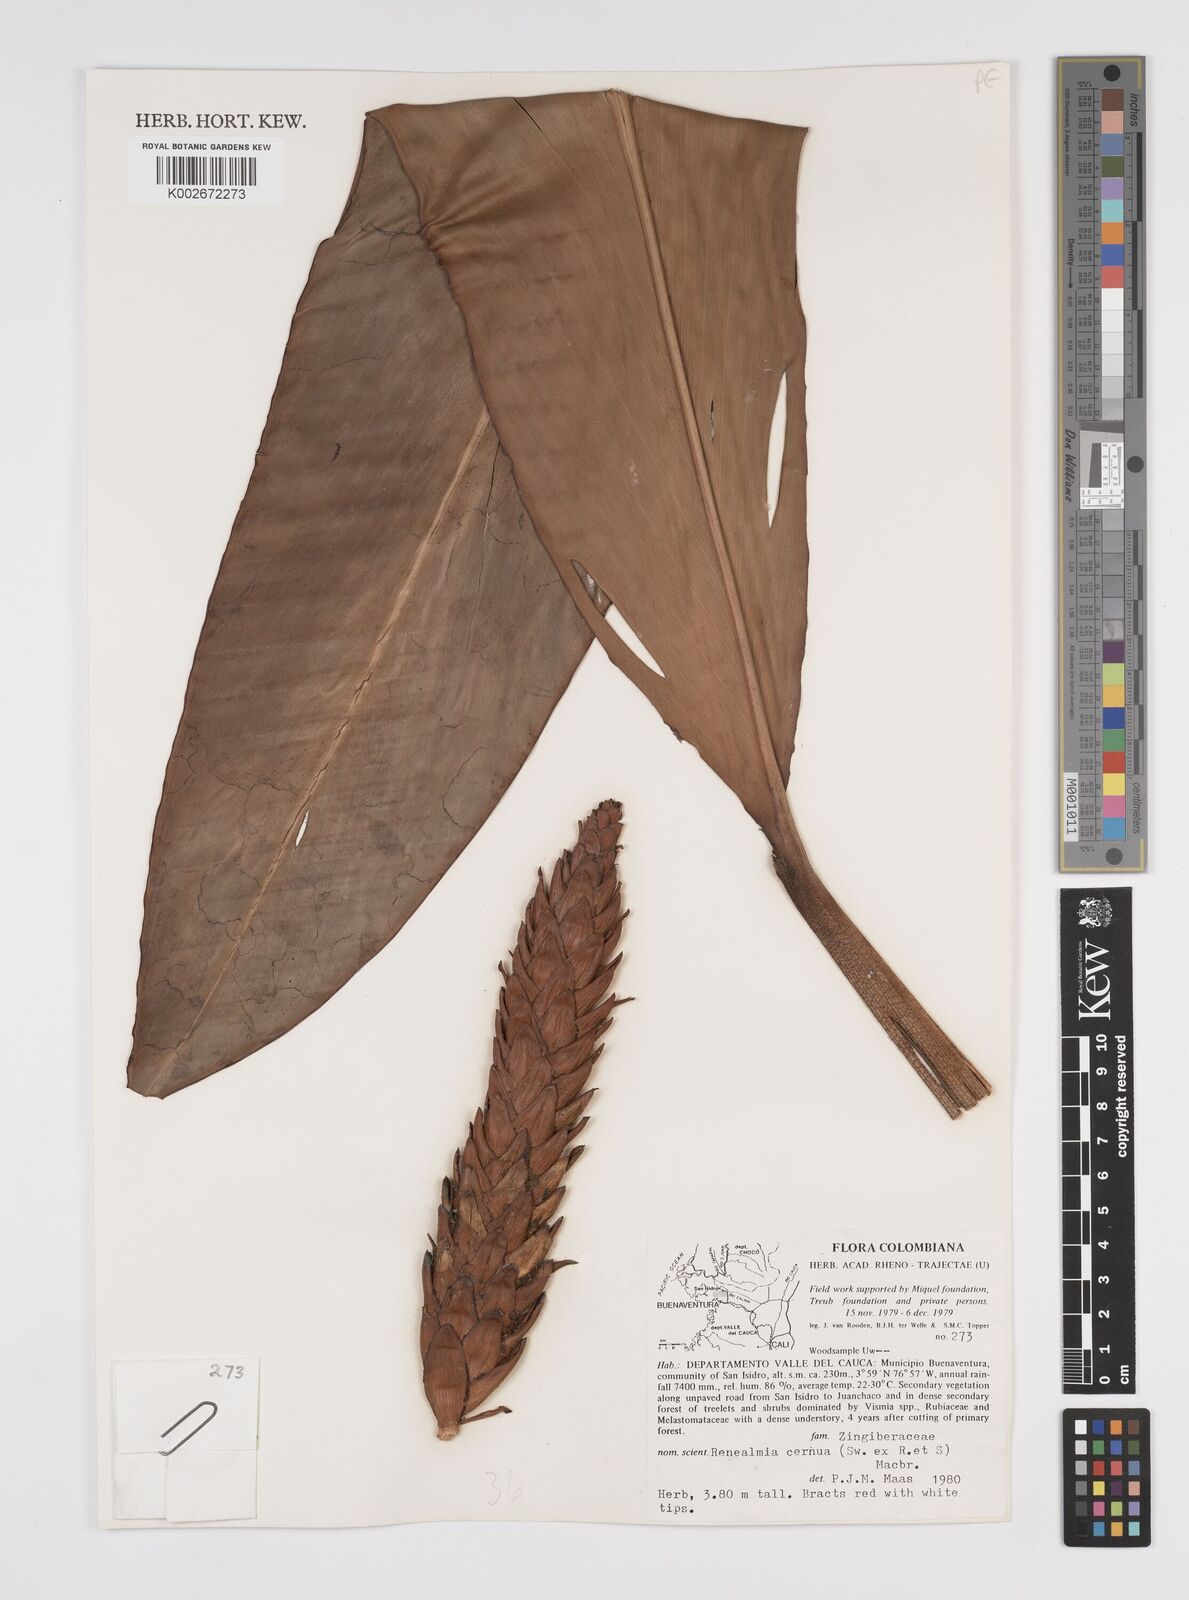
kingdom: Plantae
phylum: Tracheophyta
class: Liliopsida
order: Zingiberales
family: Zingiberaceae
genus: Renealmia
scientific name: Renealmia cernua
